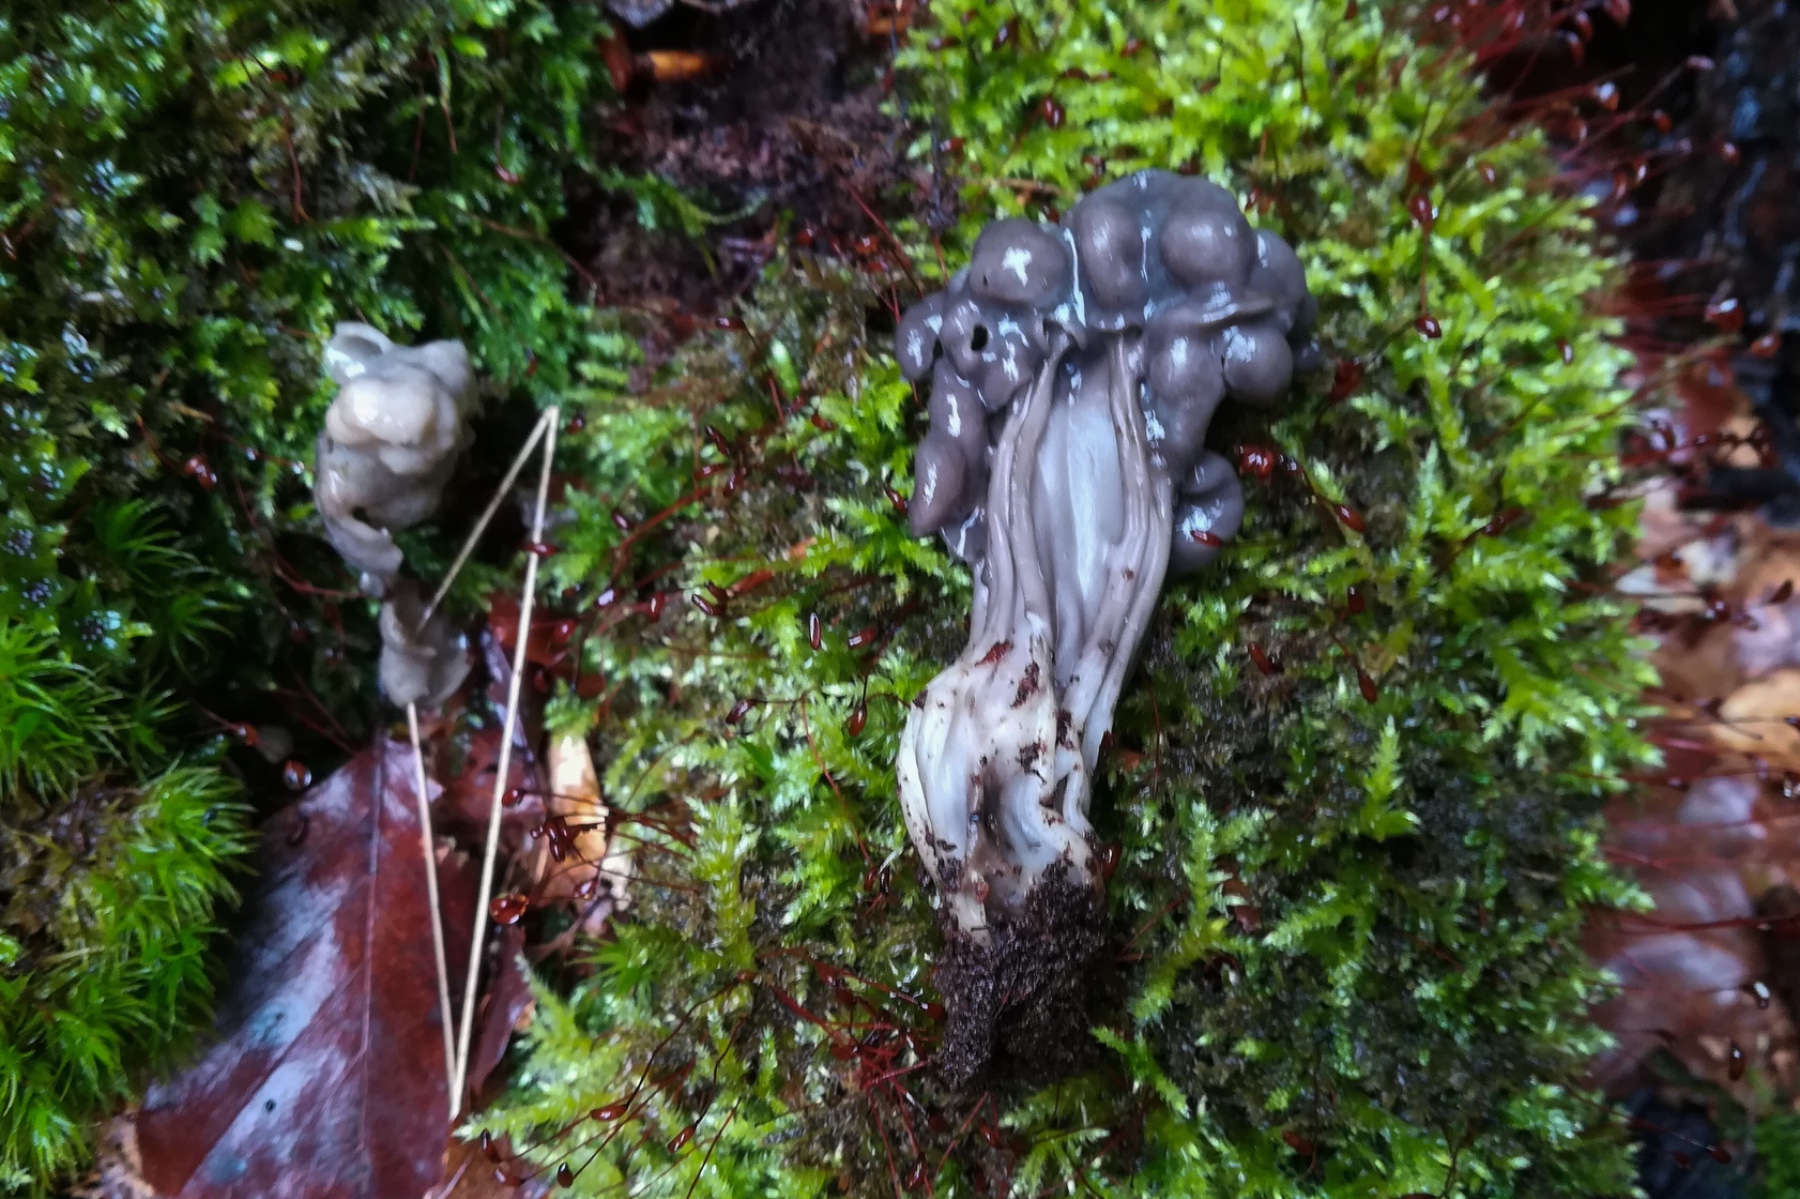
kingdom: Fungi
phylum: Ascomycota
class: Pezizomycetes
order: Pezizales
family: Helvellaceae
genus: Helvella
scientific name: Helvella lacunosa
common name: grubet foldhat
